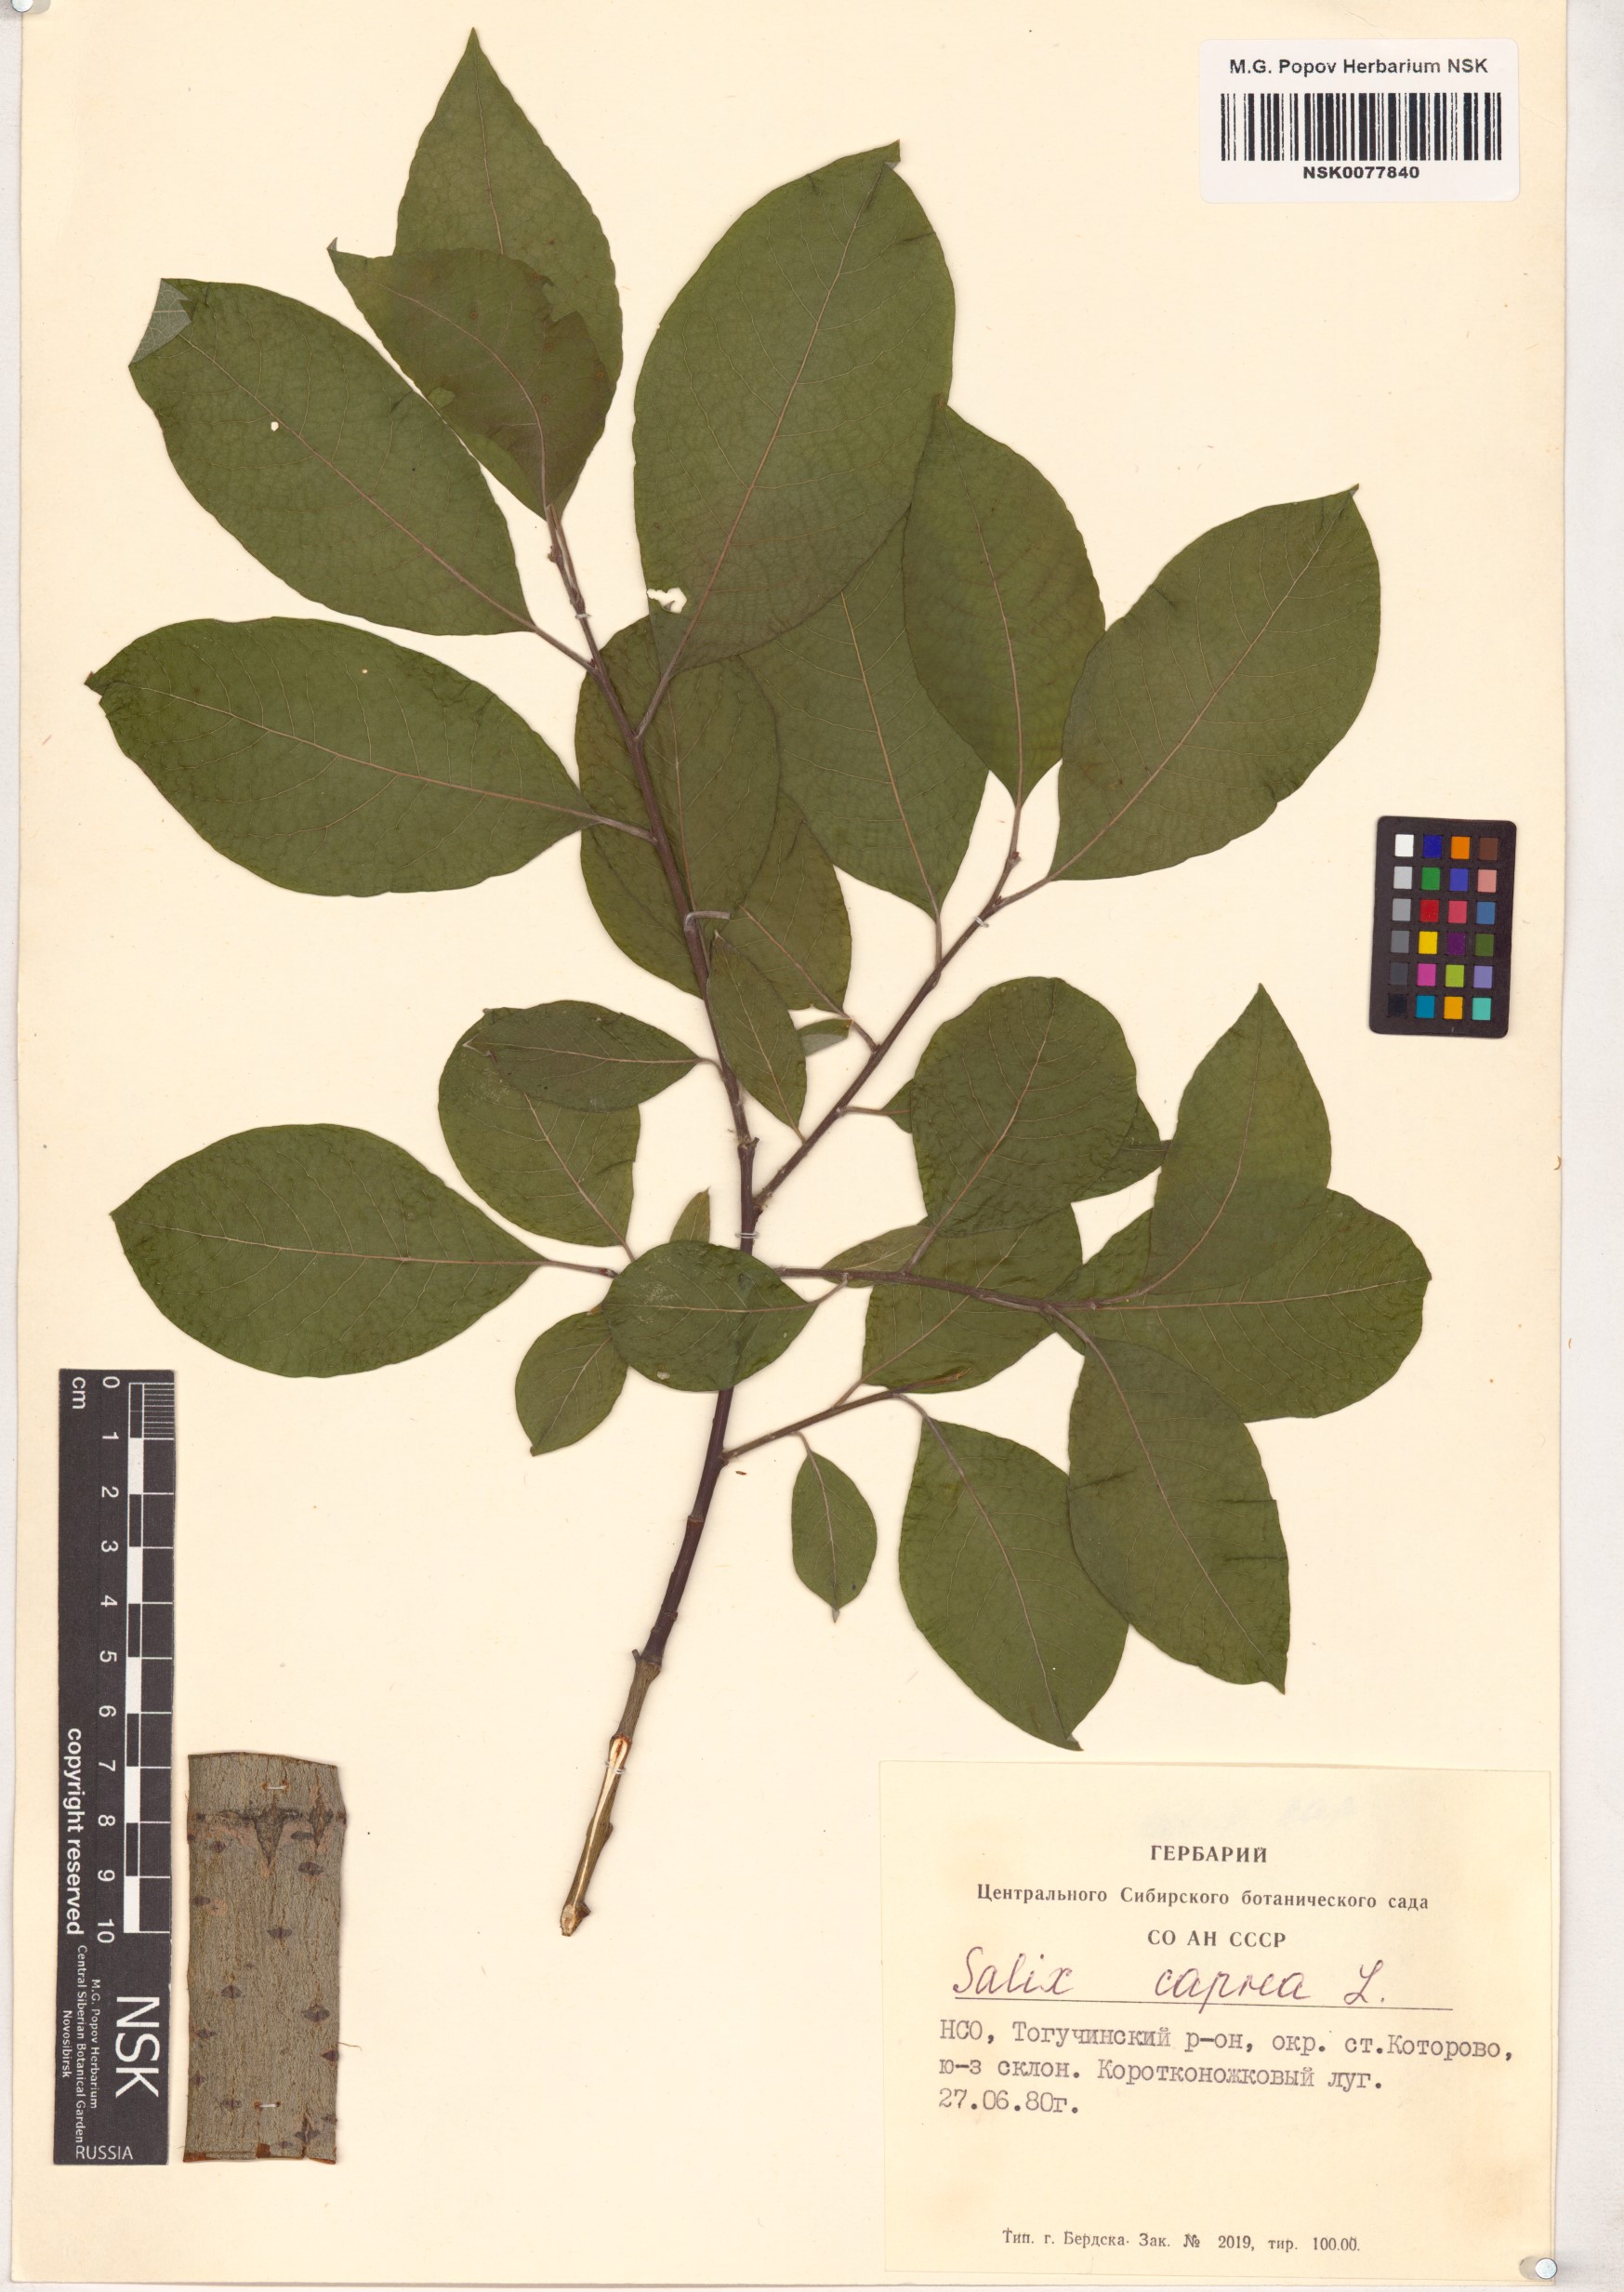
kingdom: Plantae
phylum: Tracheophyta
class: Magnoliopsida
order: Malpighiales
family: Salicaceae
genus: Salix
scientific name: Salix caprea
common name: Goat willow
